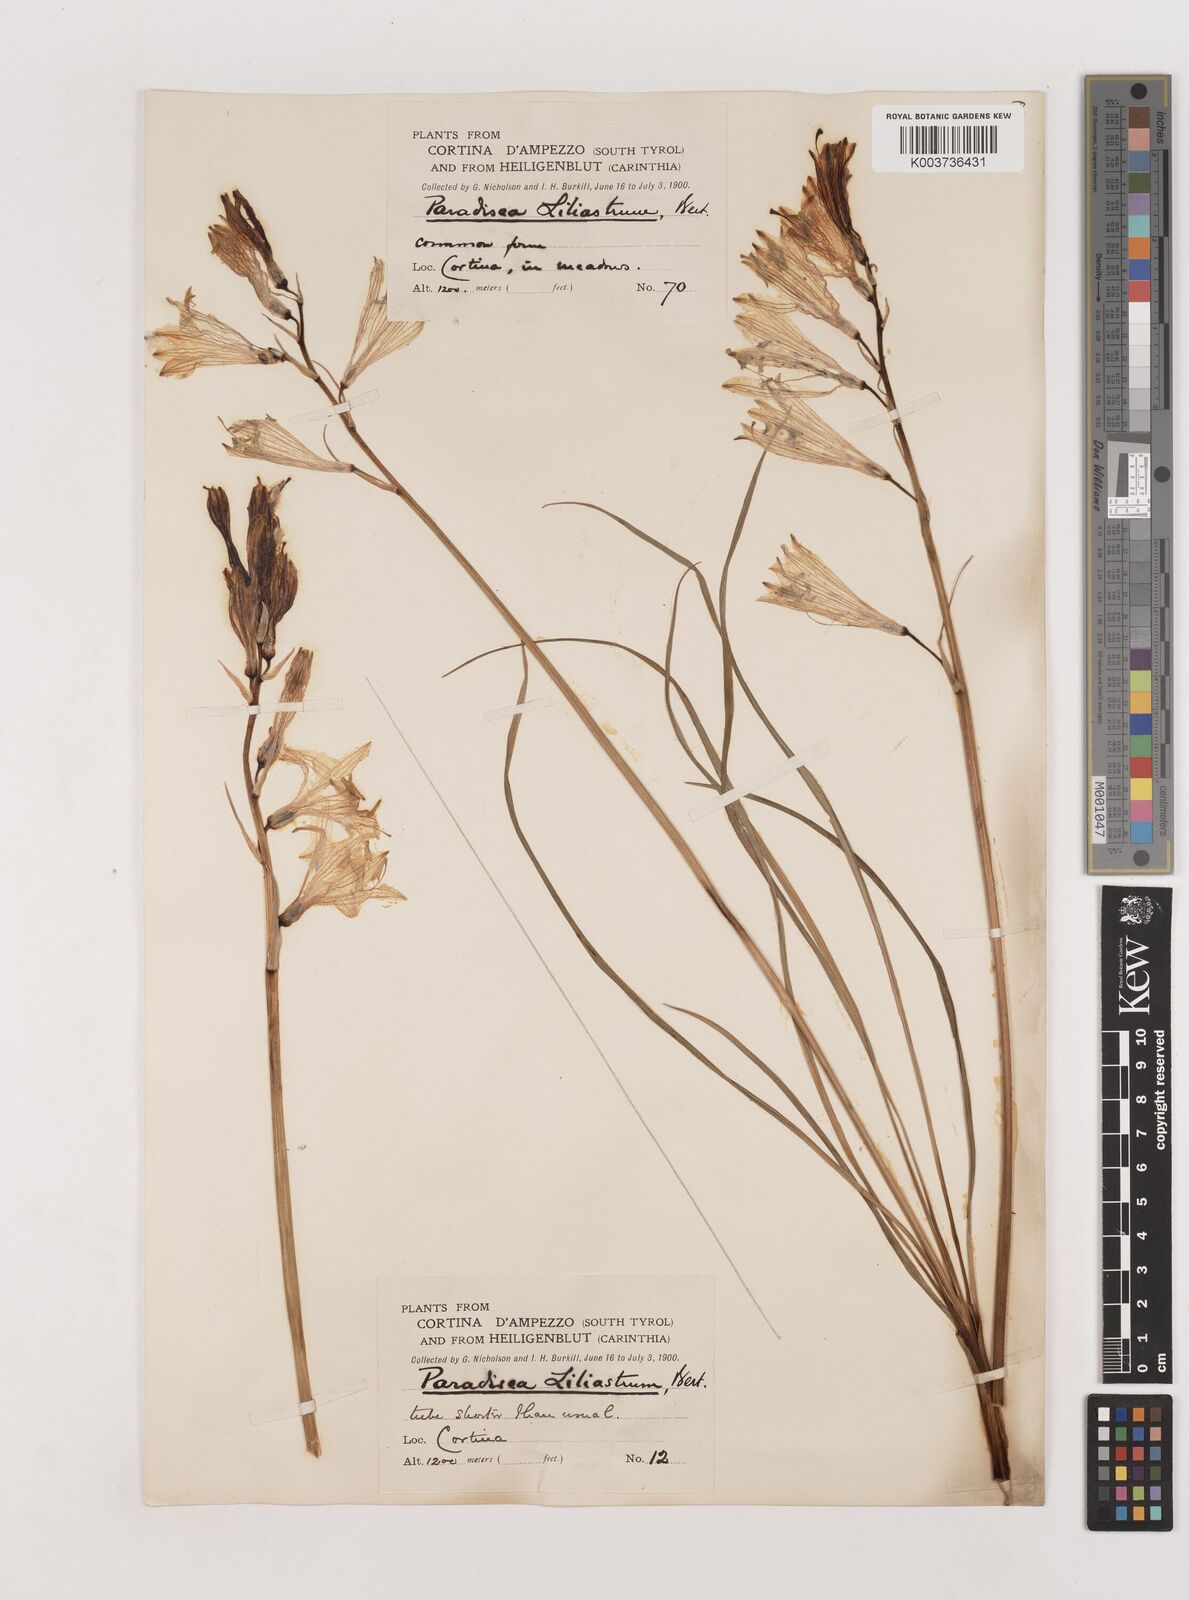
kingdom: Plantae
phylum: Tracheophyta
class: Liliopsida
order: Asparagales
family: Asparagaceae
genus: Paradisea
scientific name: Paradisea liliastrum
